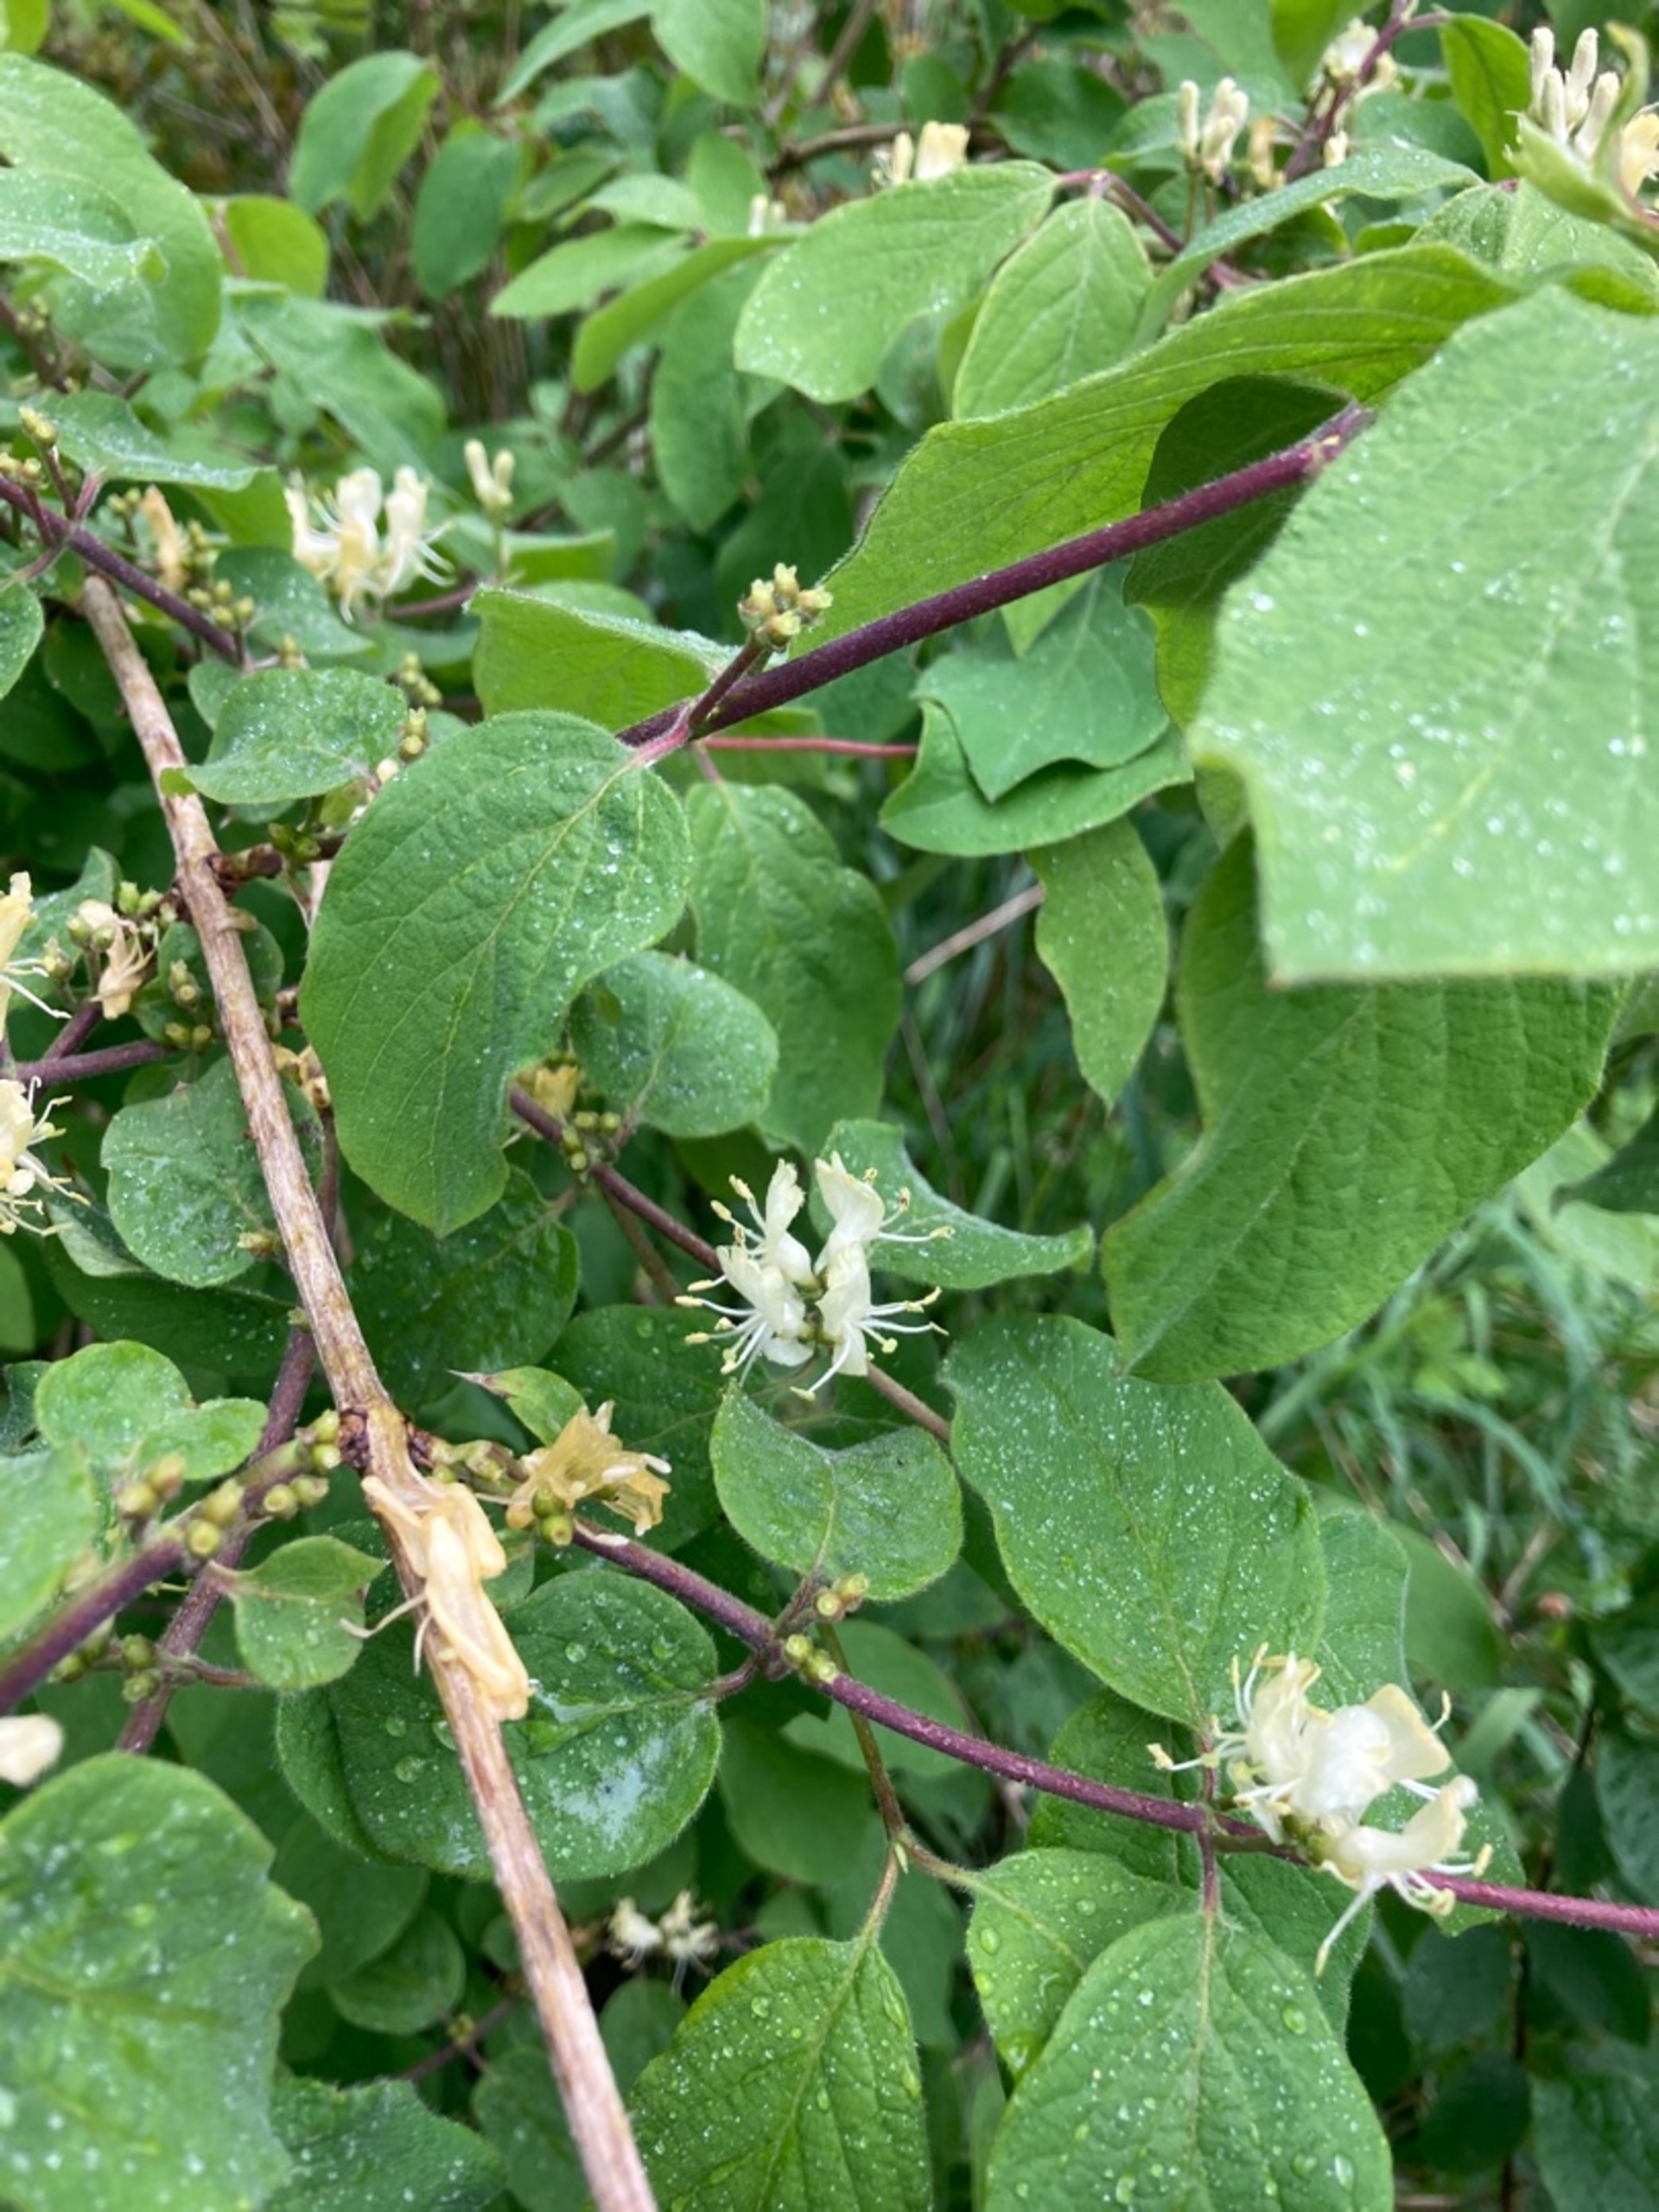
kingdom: Plantae
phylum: Tracheophyta
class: Magnoliopsida
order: Dipsacales
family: Caprifoliaceae
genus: Lonicera
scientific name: Lonicera xylosteum
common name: Dunet gedeblad
